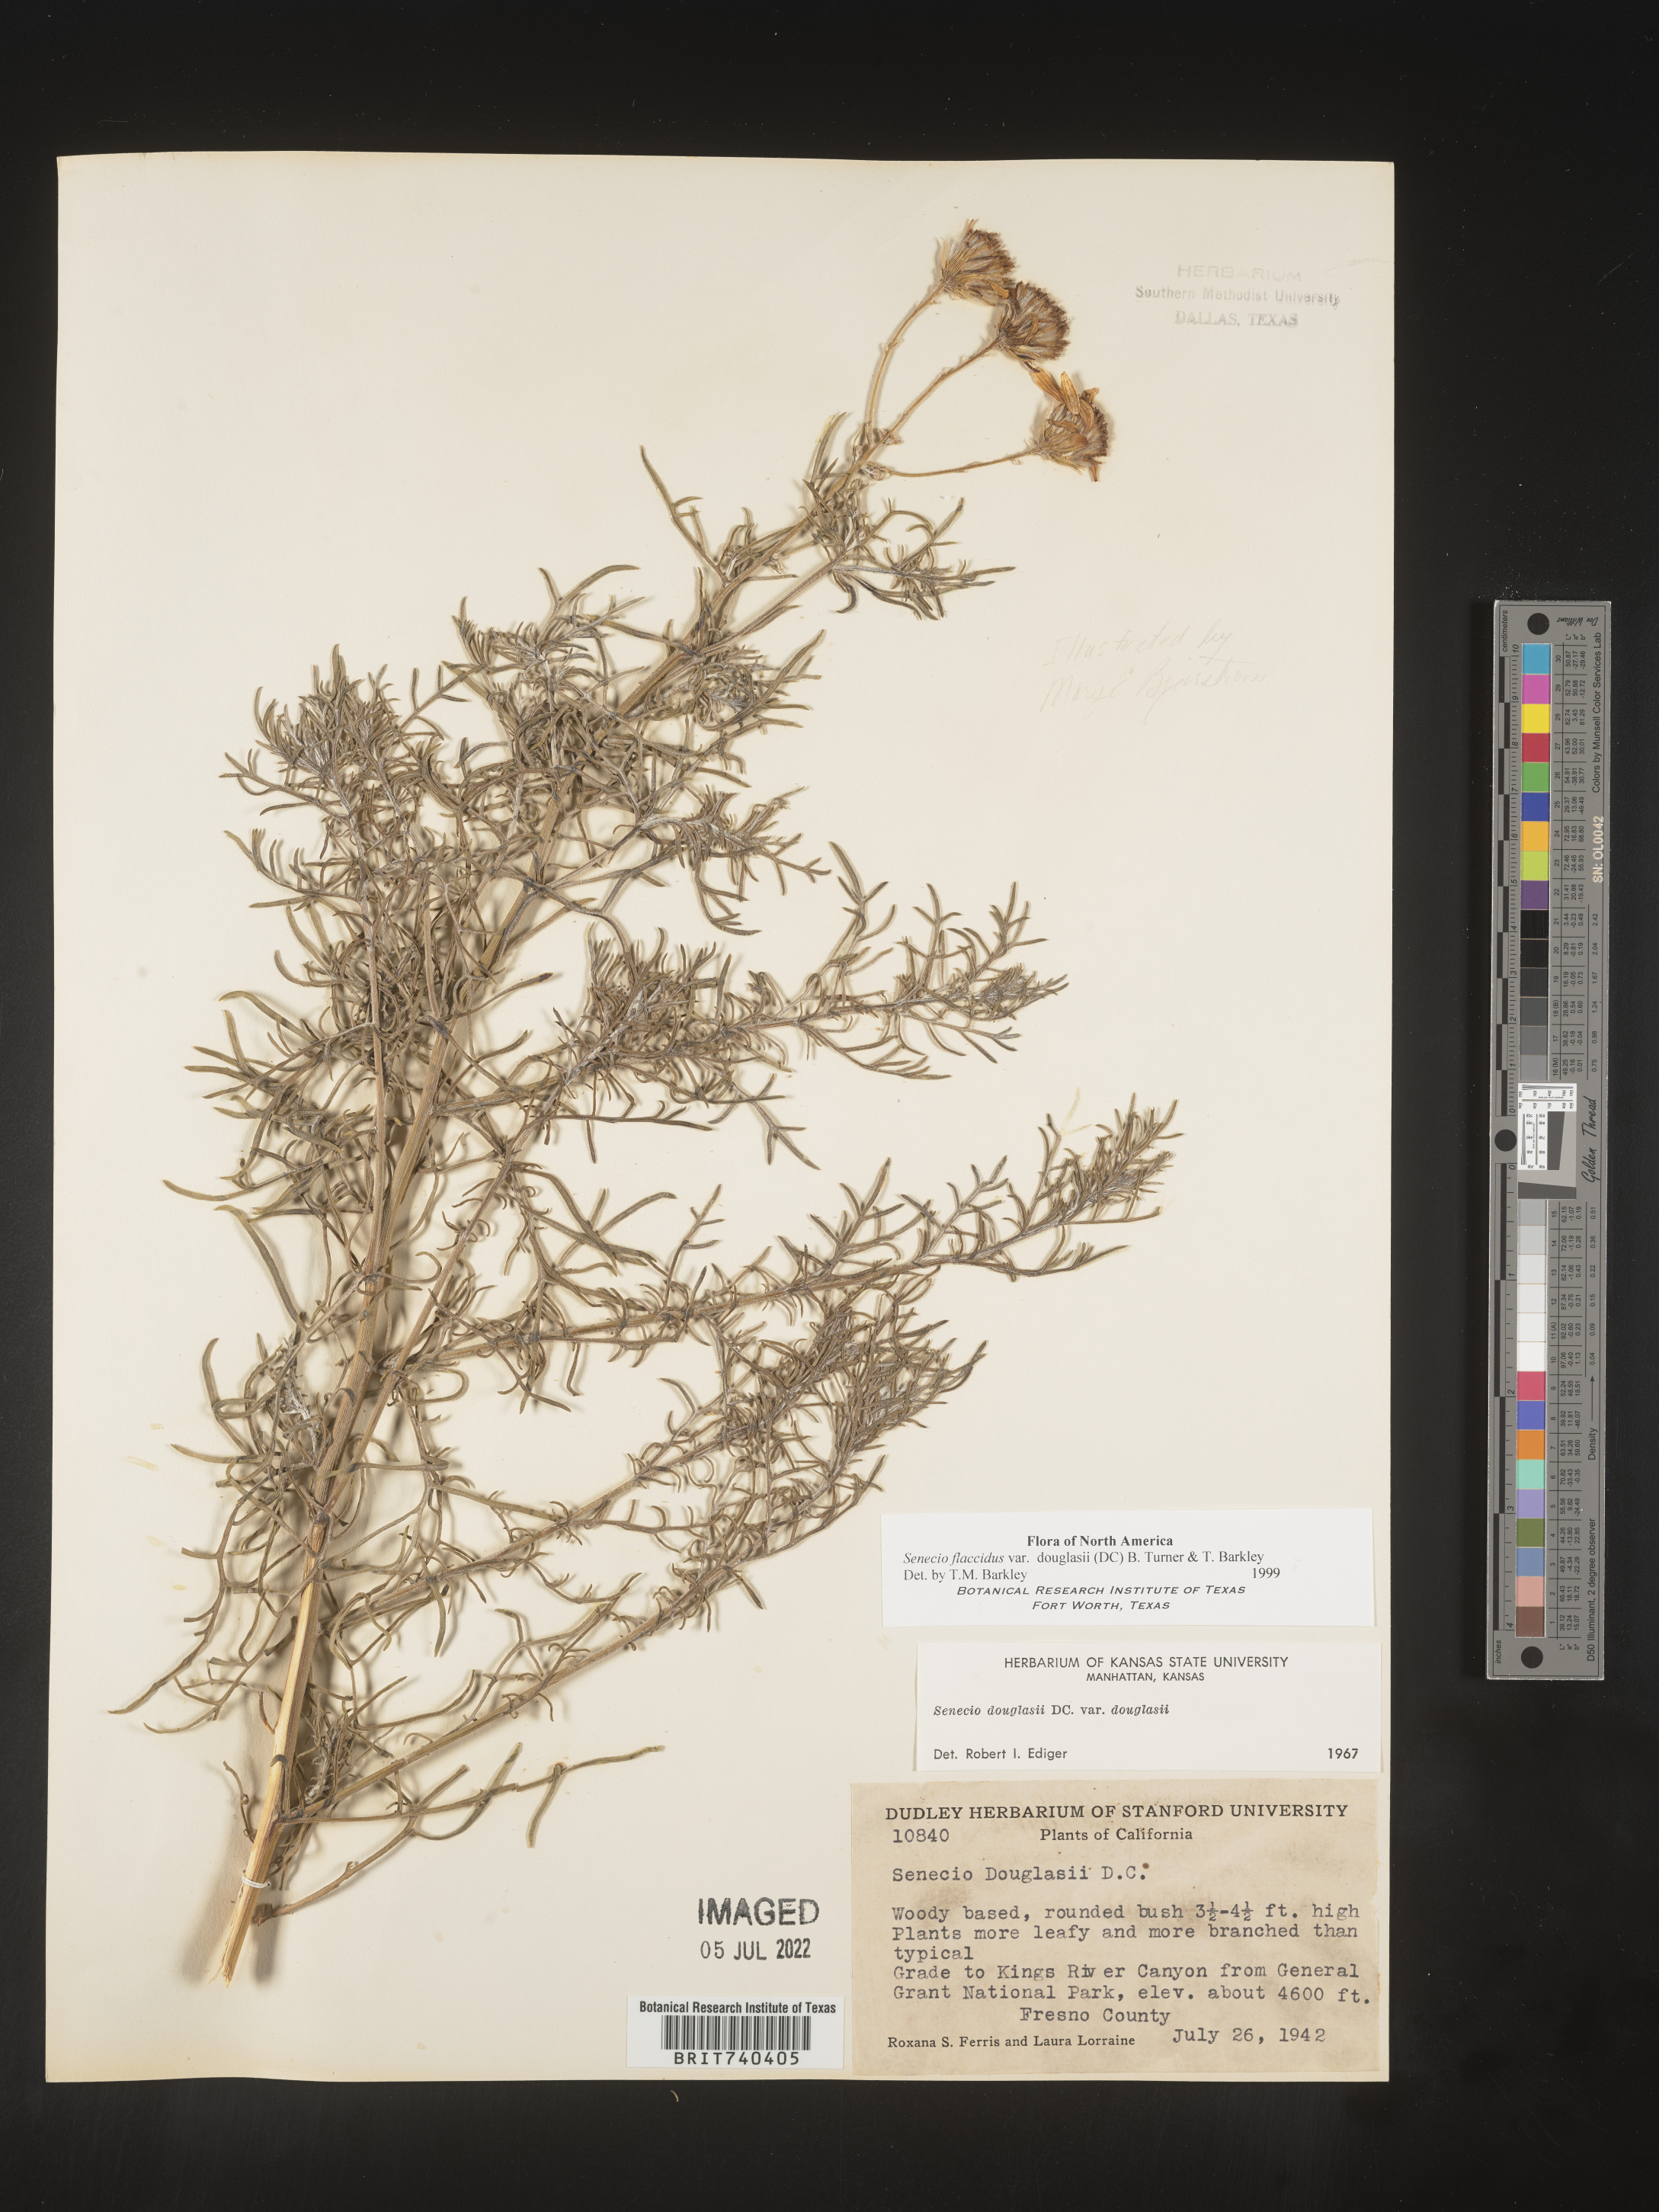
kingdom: Plantae
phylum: Tracheophyta
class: Magnoliopsida
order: Asterales
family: Asteraceae
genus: Senecio
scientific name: Senecio flaccidus
